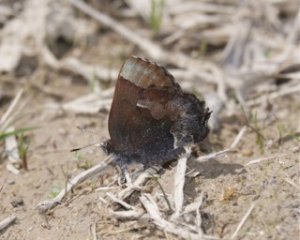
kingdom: Animalia
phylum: Arthropoda
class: Insecta
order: Lepidoptera
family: Lycaenidae
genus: Incisalia
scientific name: Incisalia henrici
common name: Henry's Elfin
